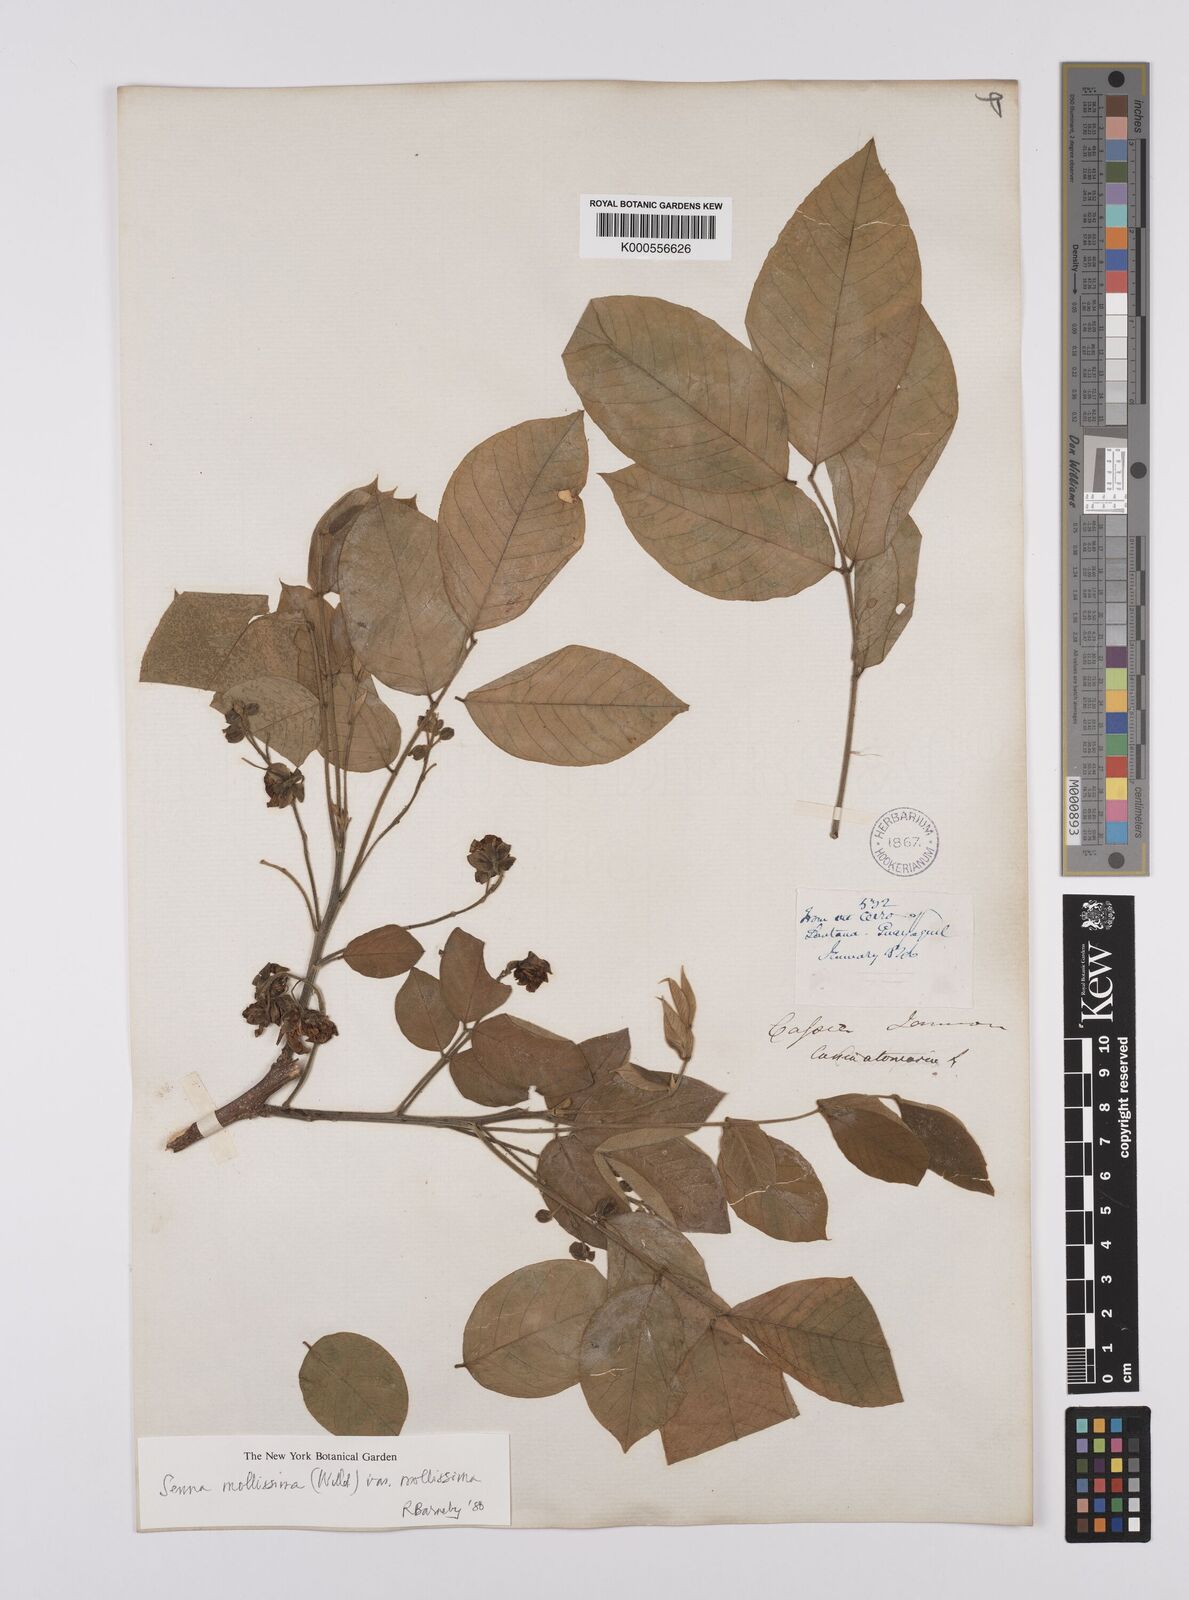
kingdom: Plantae
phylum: Tracheophyta
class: Magnoliopsida
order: Fabales
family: Fabaceae
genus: Senna
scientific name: Senna mollissima
